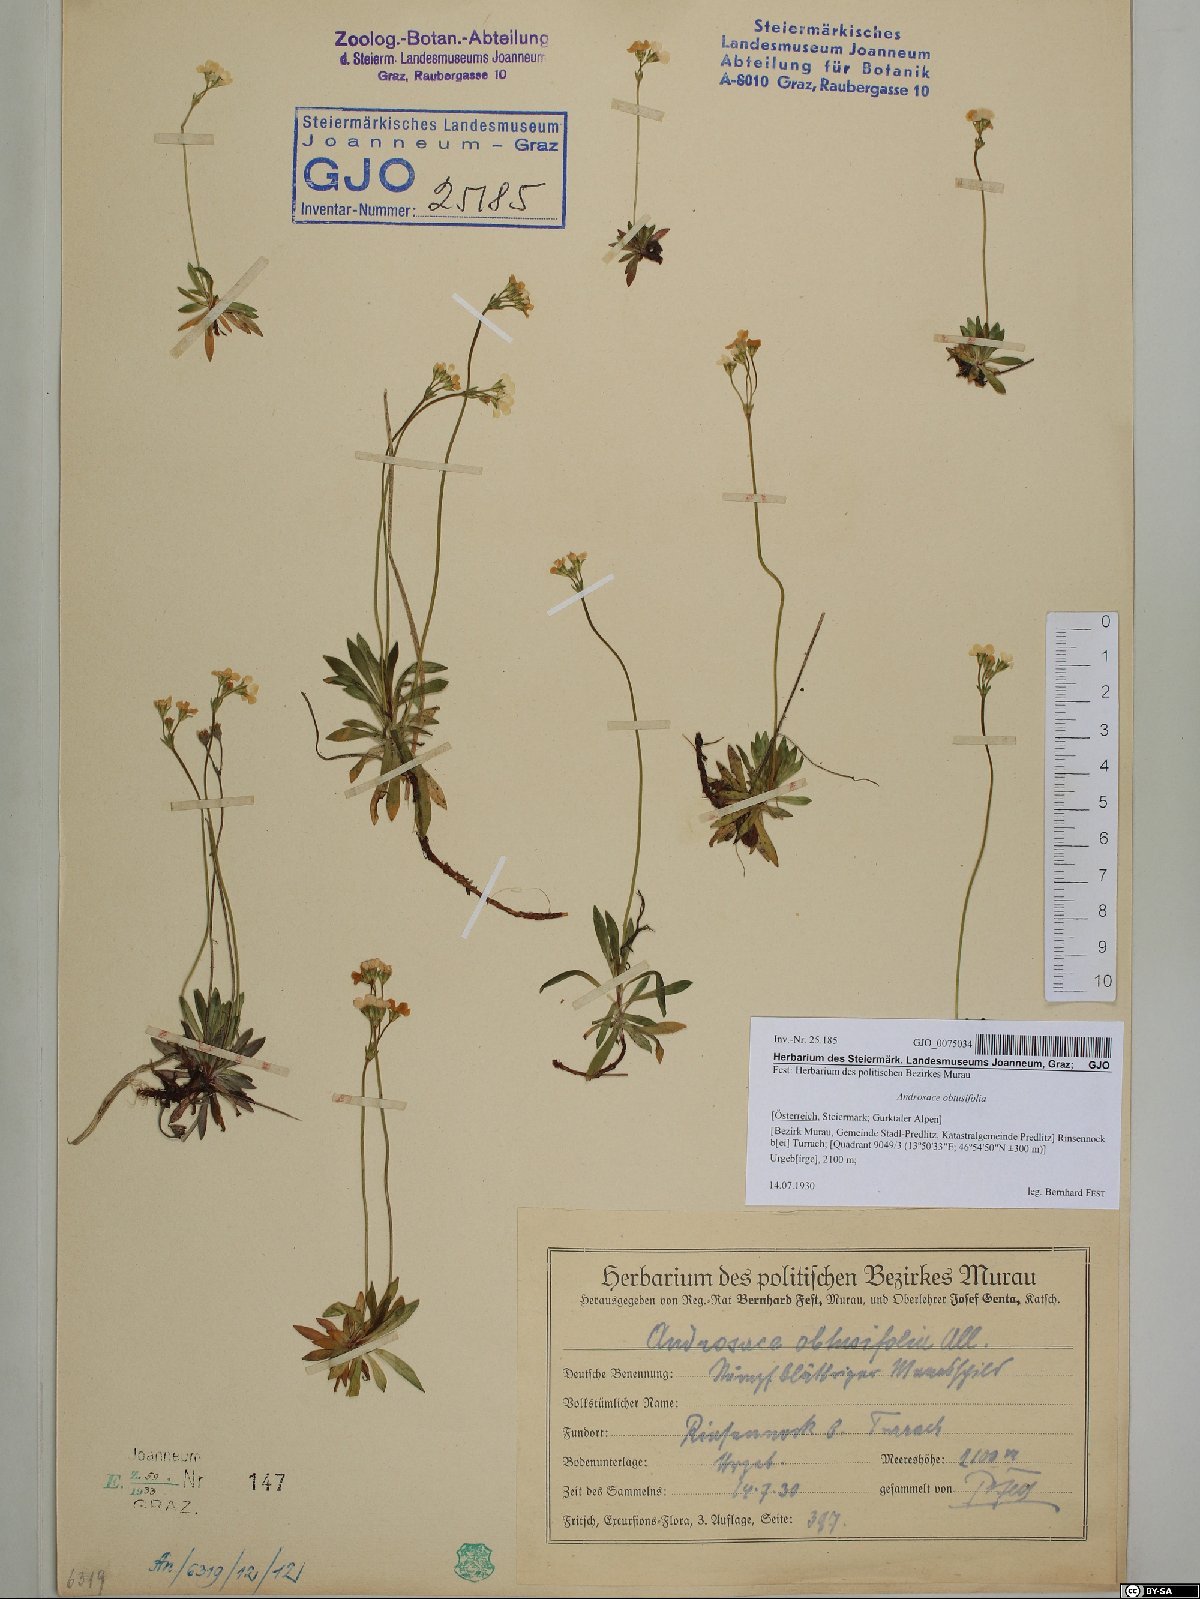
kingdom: Plantae
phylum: Tracheophyta
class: Magnoliopsida
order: Ericales
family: Primulaceae
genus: Androsace
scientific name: Androsace obtusifolia
